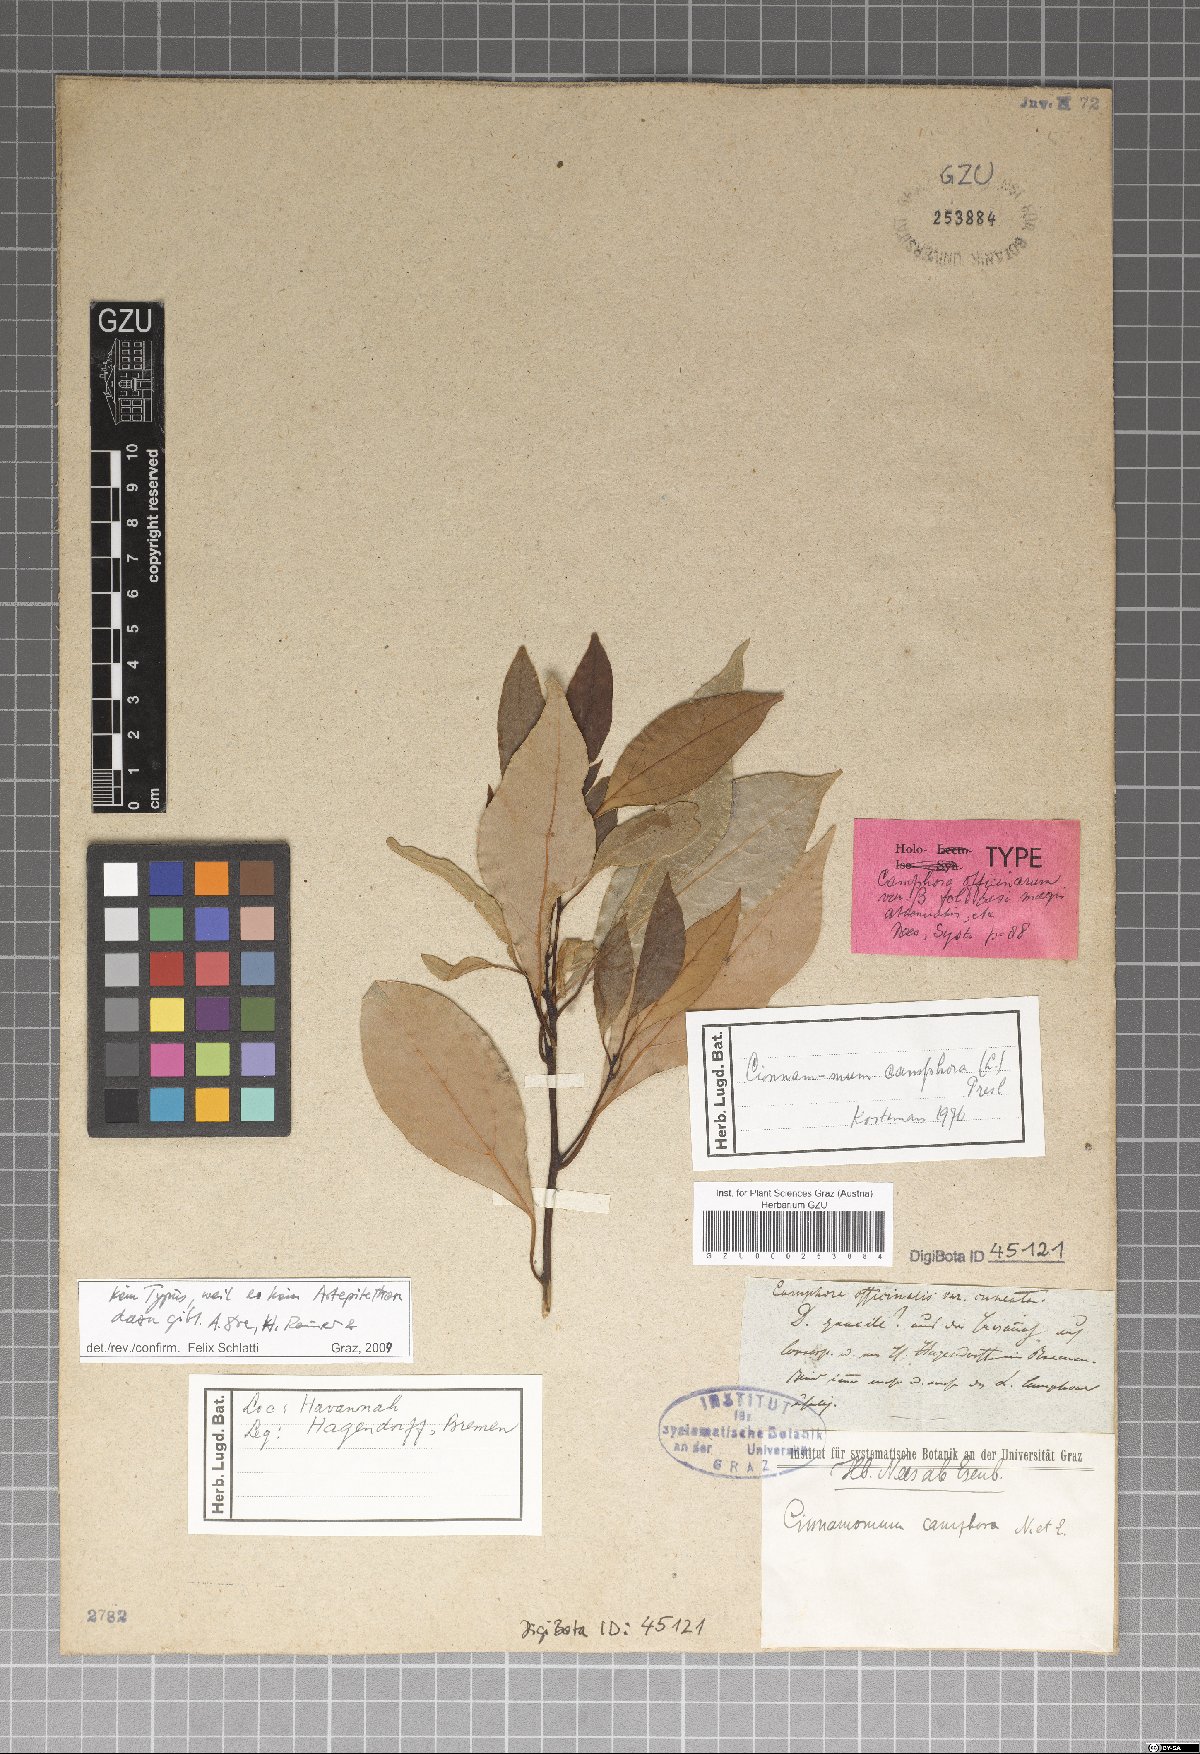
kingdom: Plantae
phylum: Tracheophyta
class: Magnoliopsida
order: Laurales
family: Lauraceae
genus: Cinnamomum
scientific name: Cinnamomum camphora
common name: Camphortree
